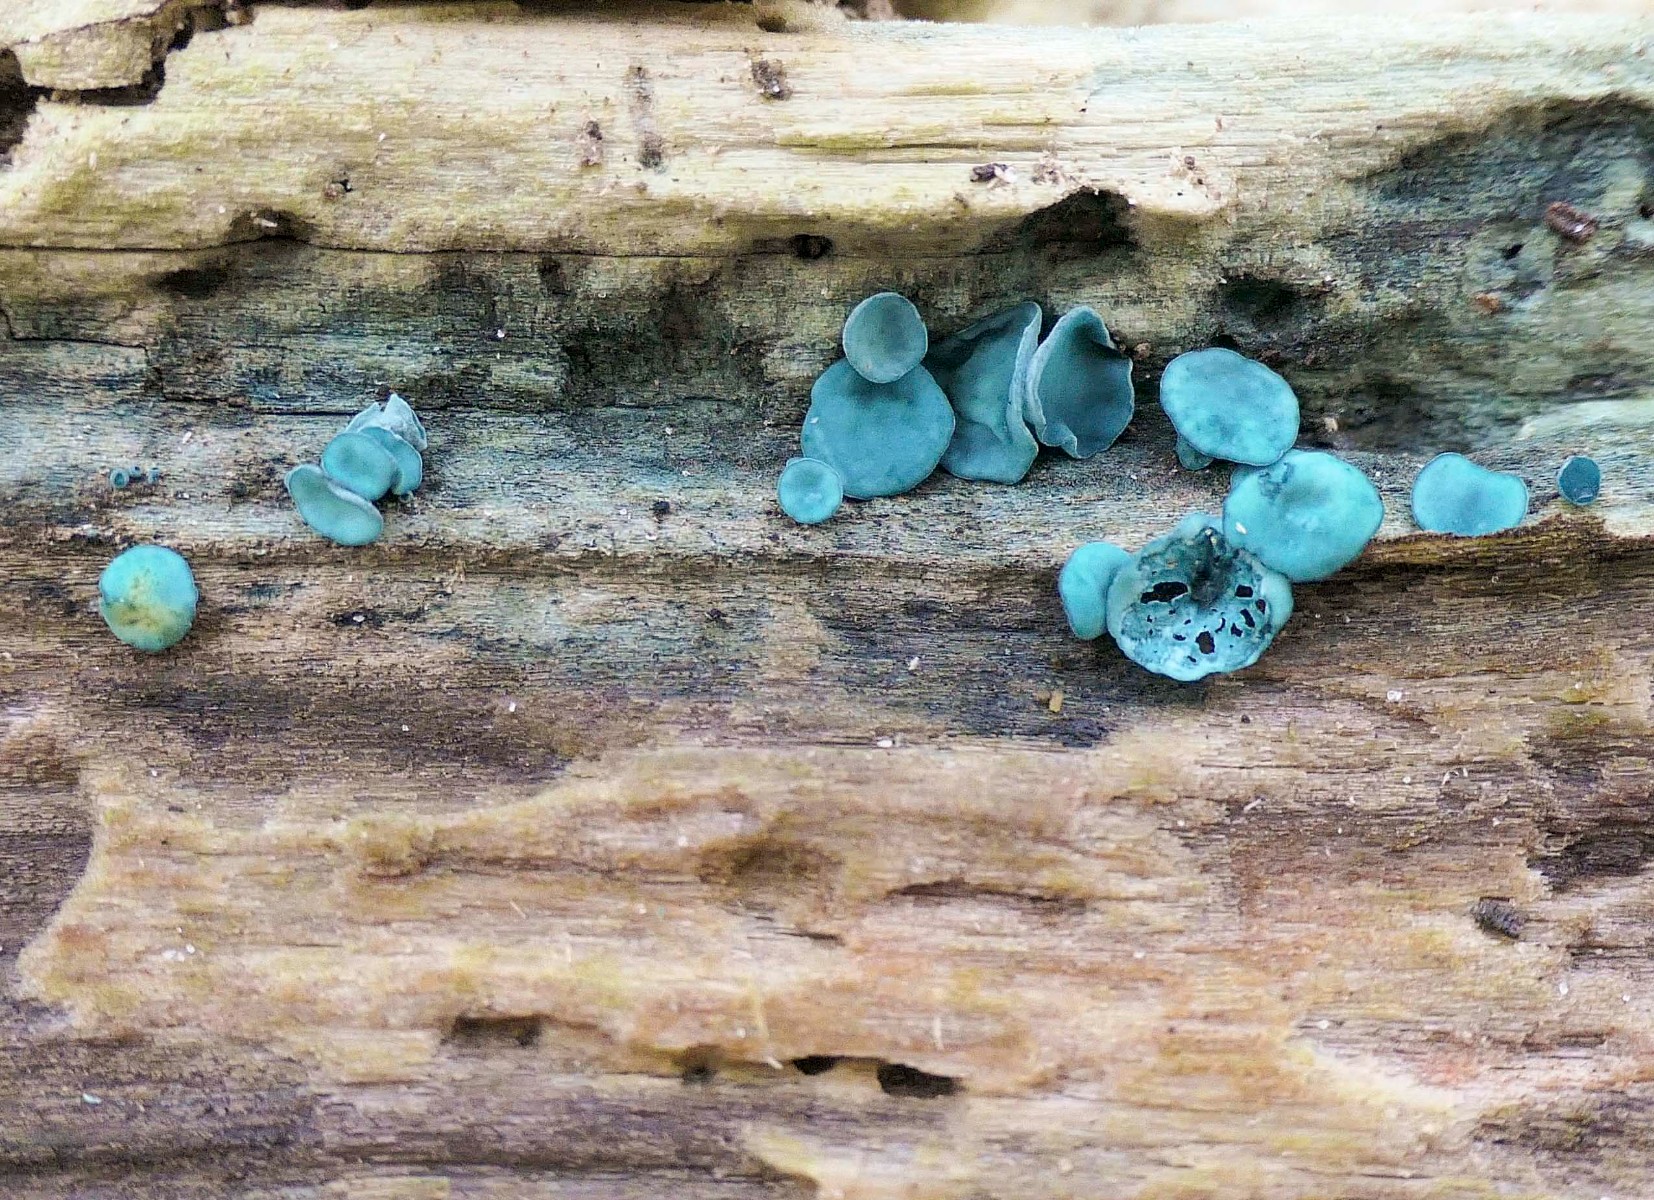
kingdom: Fungi
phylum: Ascomycota
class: Leotiomycetes
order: Helotiales
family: Chlorociboriaceae
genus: Chlorociboria
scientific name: Chlorociboria aeruginascens
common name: almindelig grønskive
